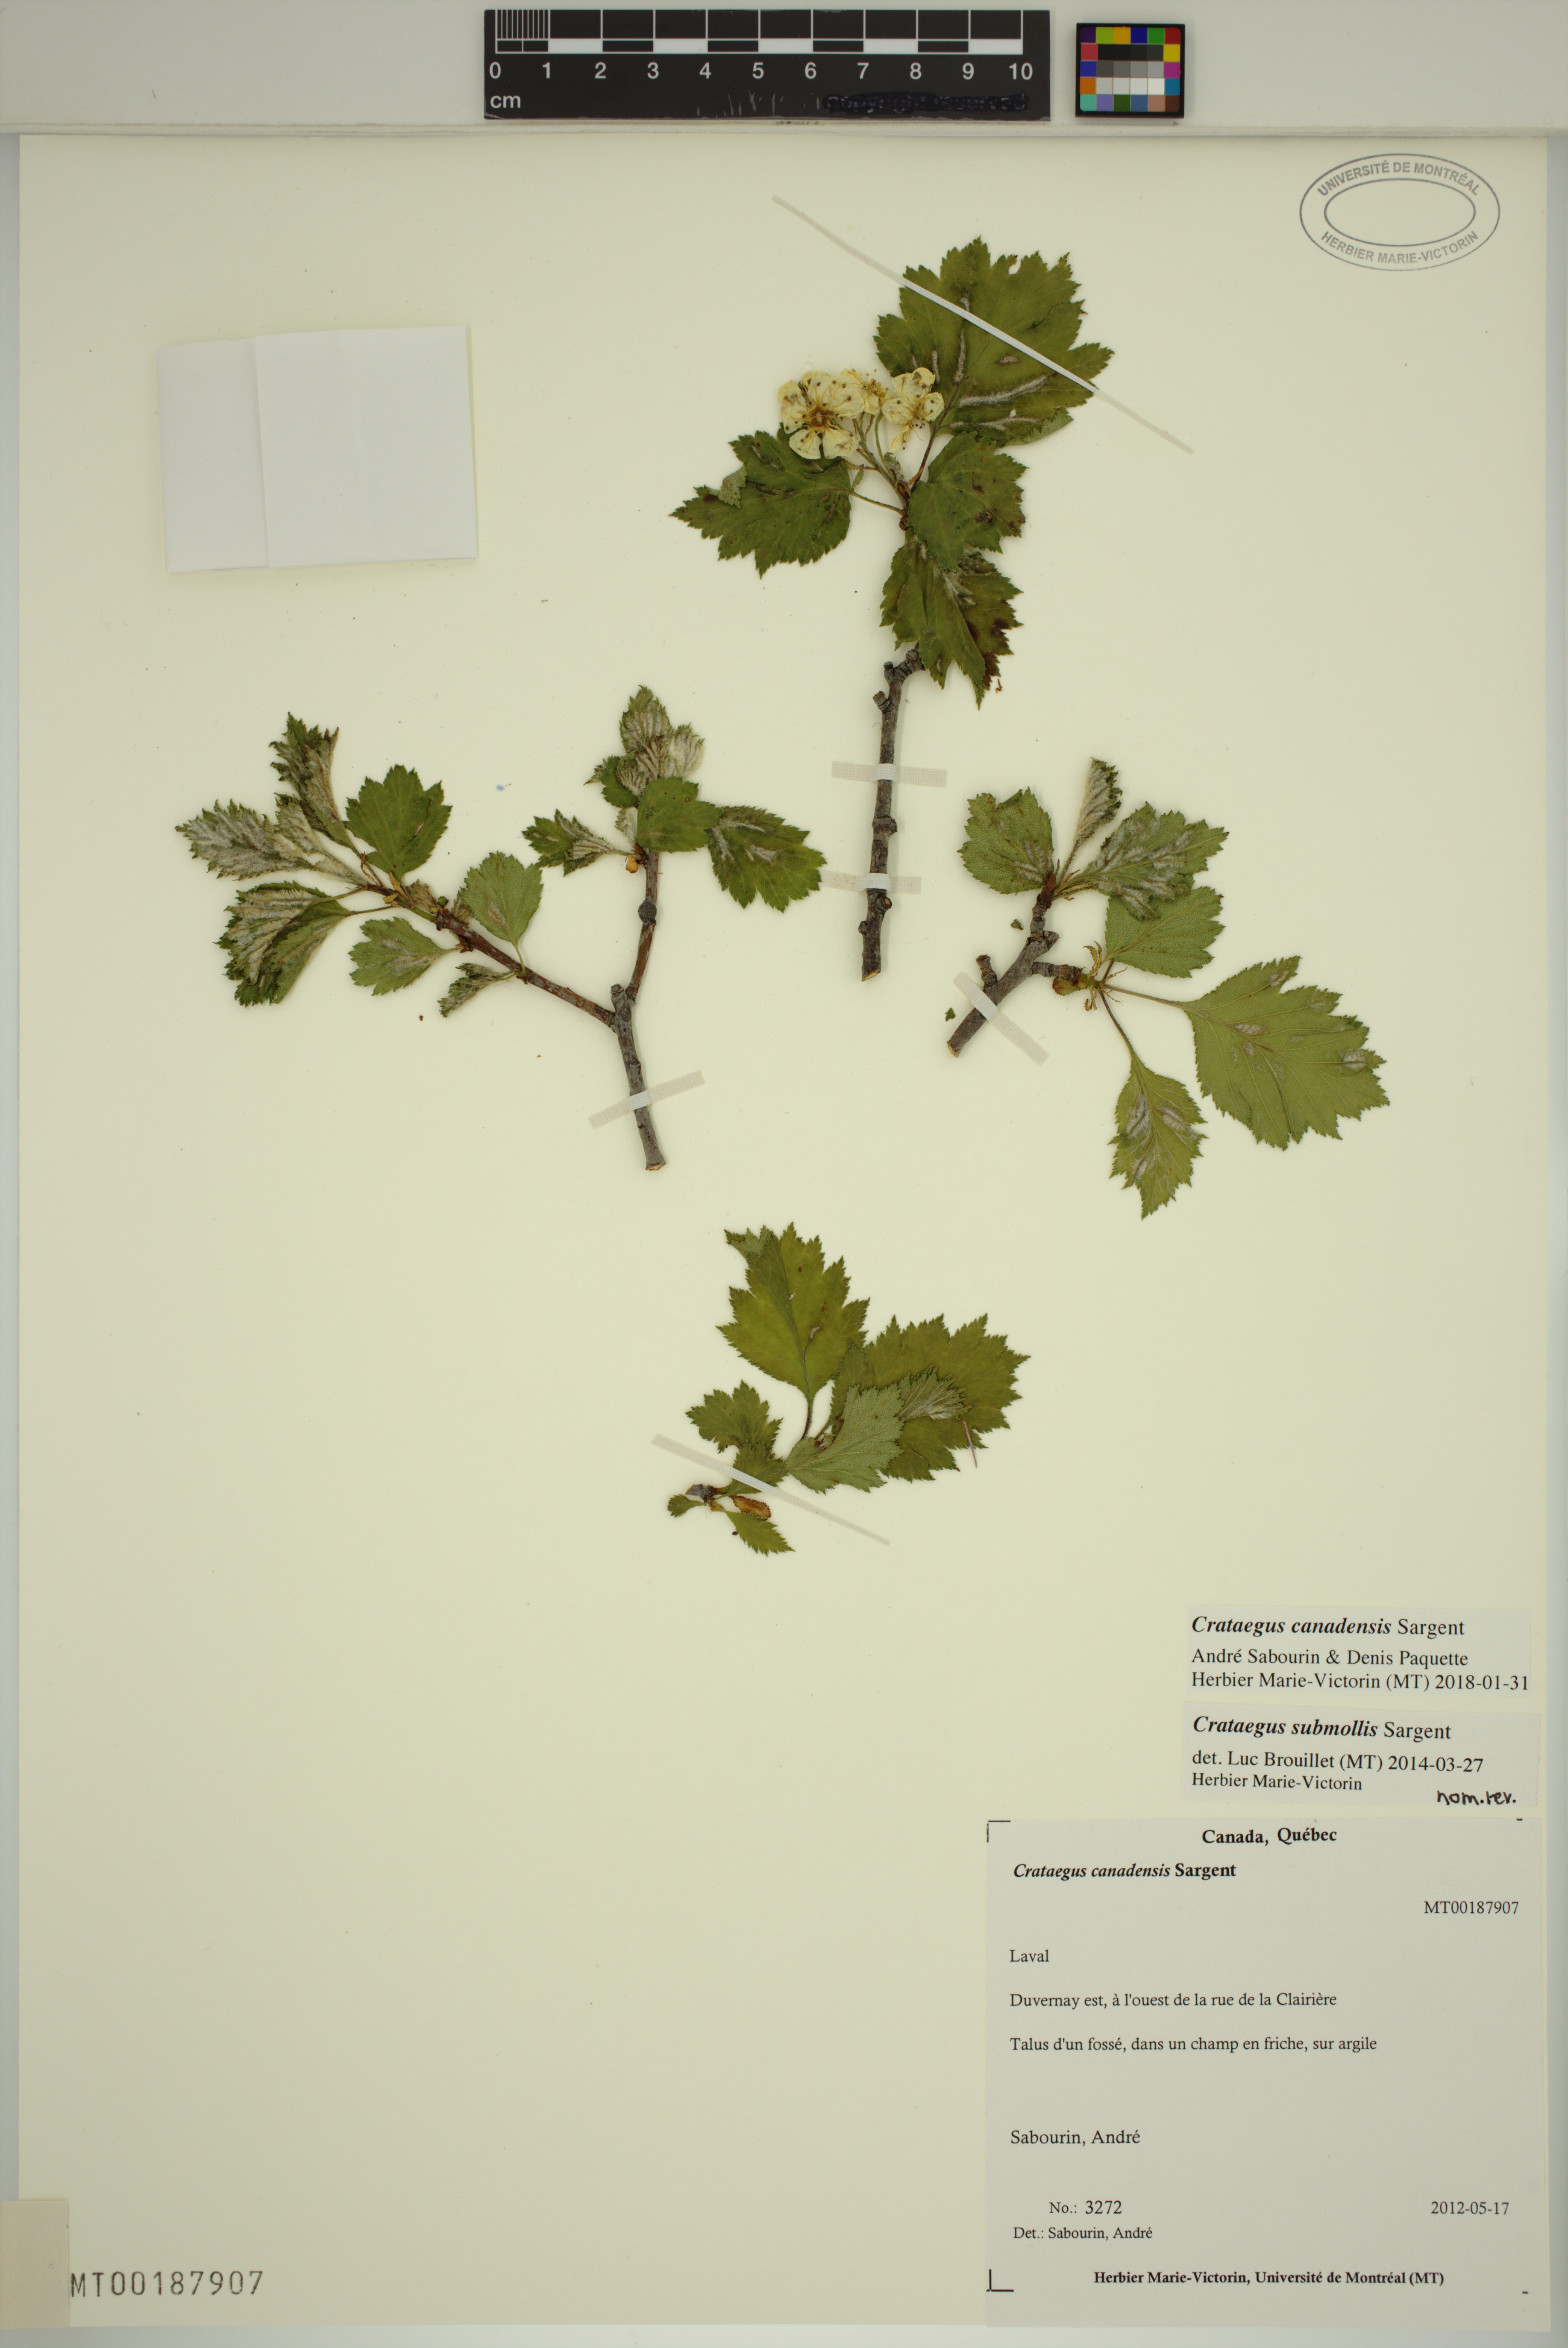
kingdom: Plantae
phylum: Tracheophyta
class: Magnoliopsida
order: Rosales
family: Rosaceae
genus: Crataegus
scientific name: Crataegus submollis
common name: Hairy cockspurthorn
